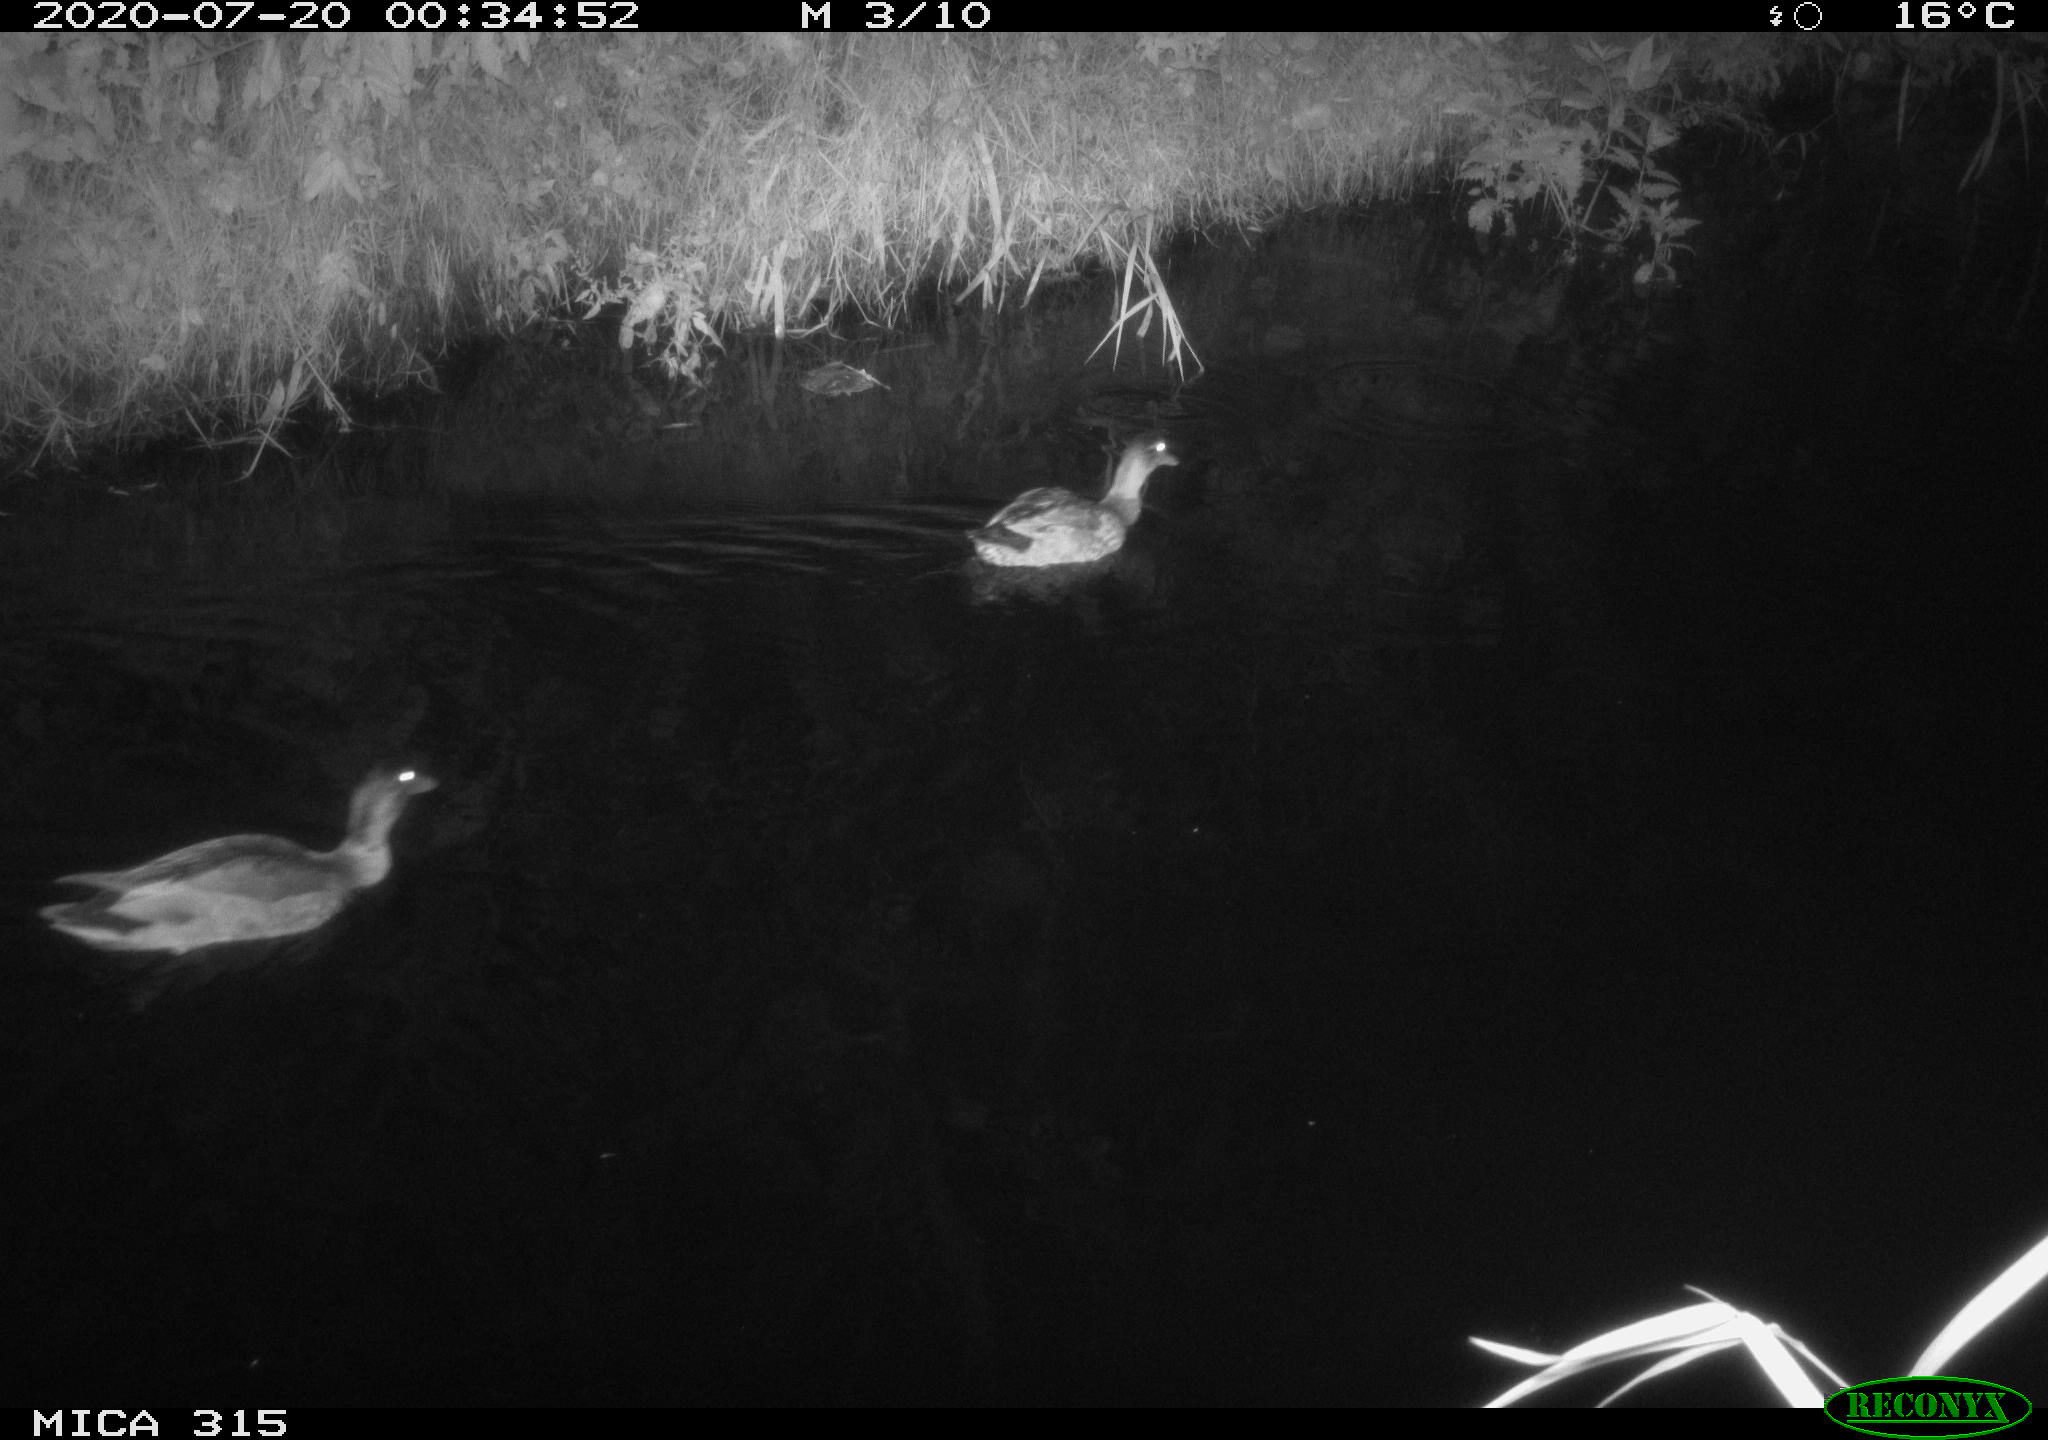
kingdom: Animalia
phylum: Chordata
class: Aves
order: Anseriformes
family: Anatidae
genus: Anas
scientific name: Anas platyrhynchos
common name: Mallard
